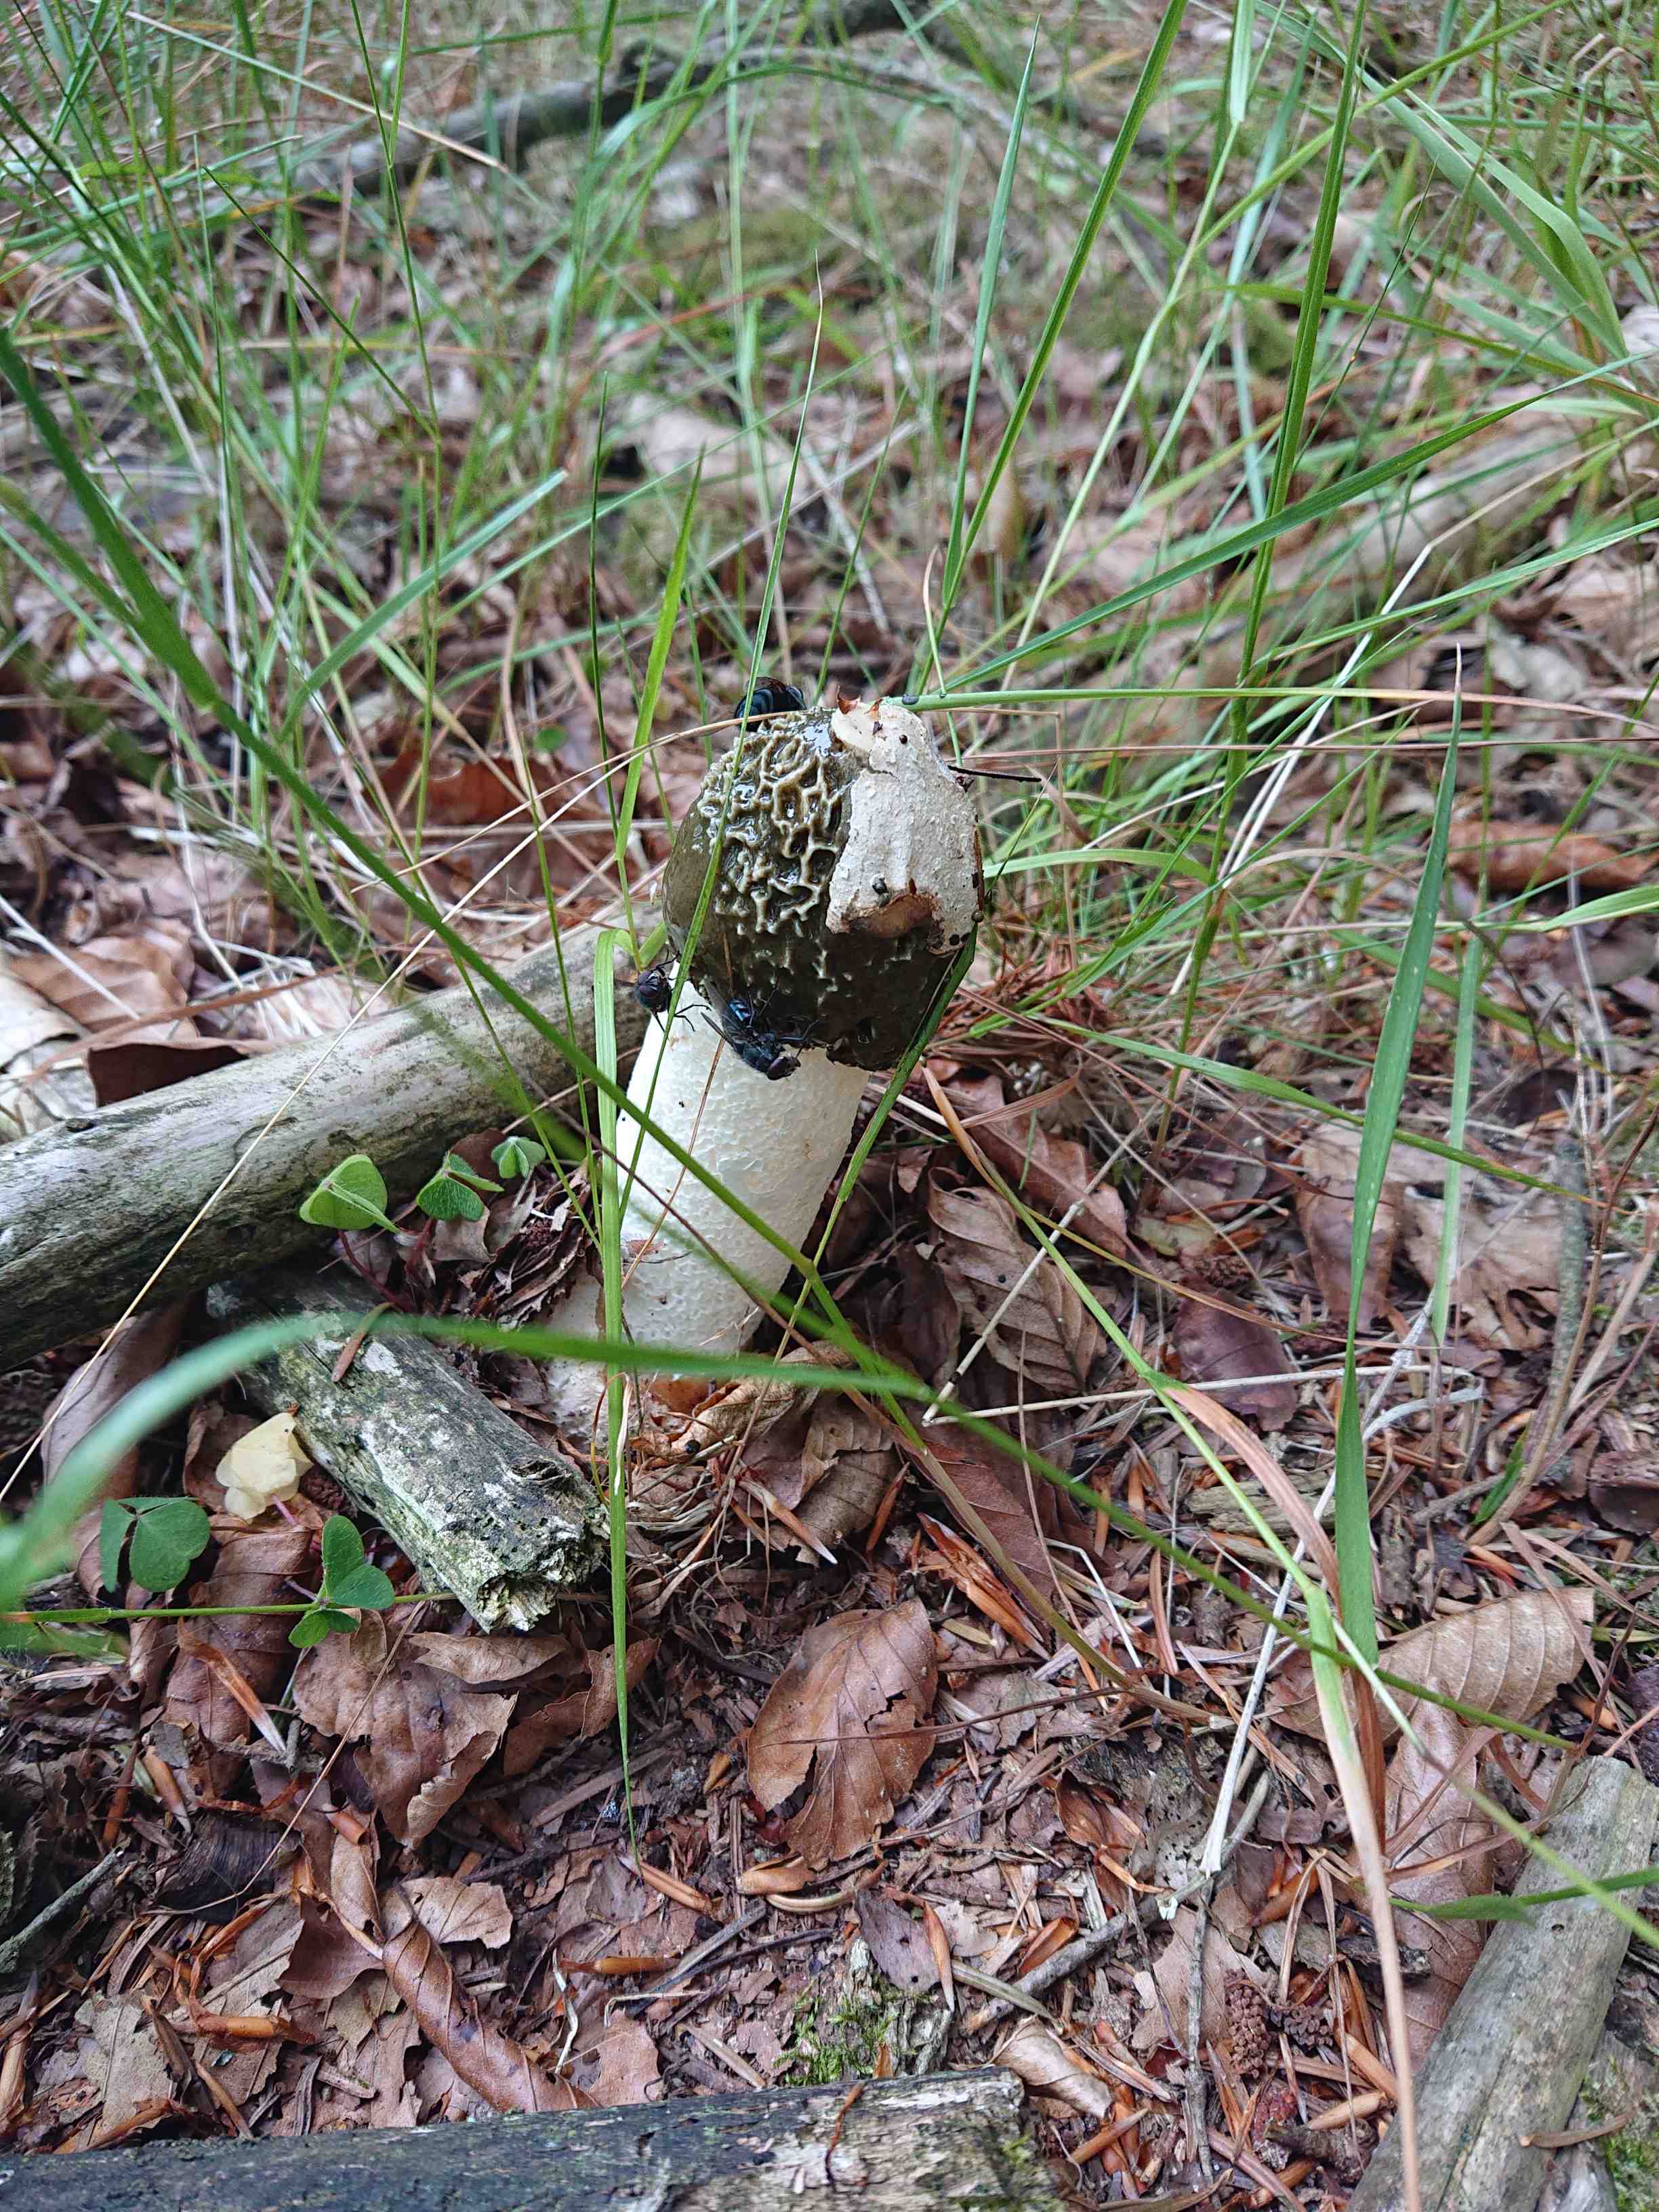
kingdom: Fungi
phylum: Basidiomycota
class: Agaricomycetes
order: Phallales
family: Phallaceae
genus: Phallus
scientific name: Phallus impudicus
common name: almindelig stinksvamp
